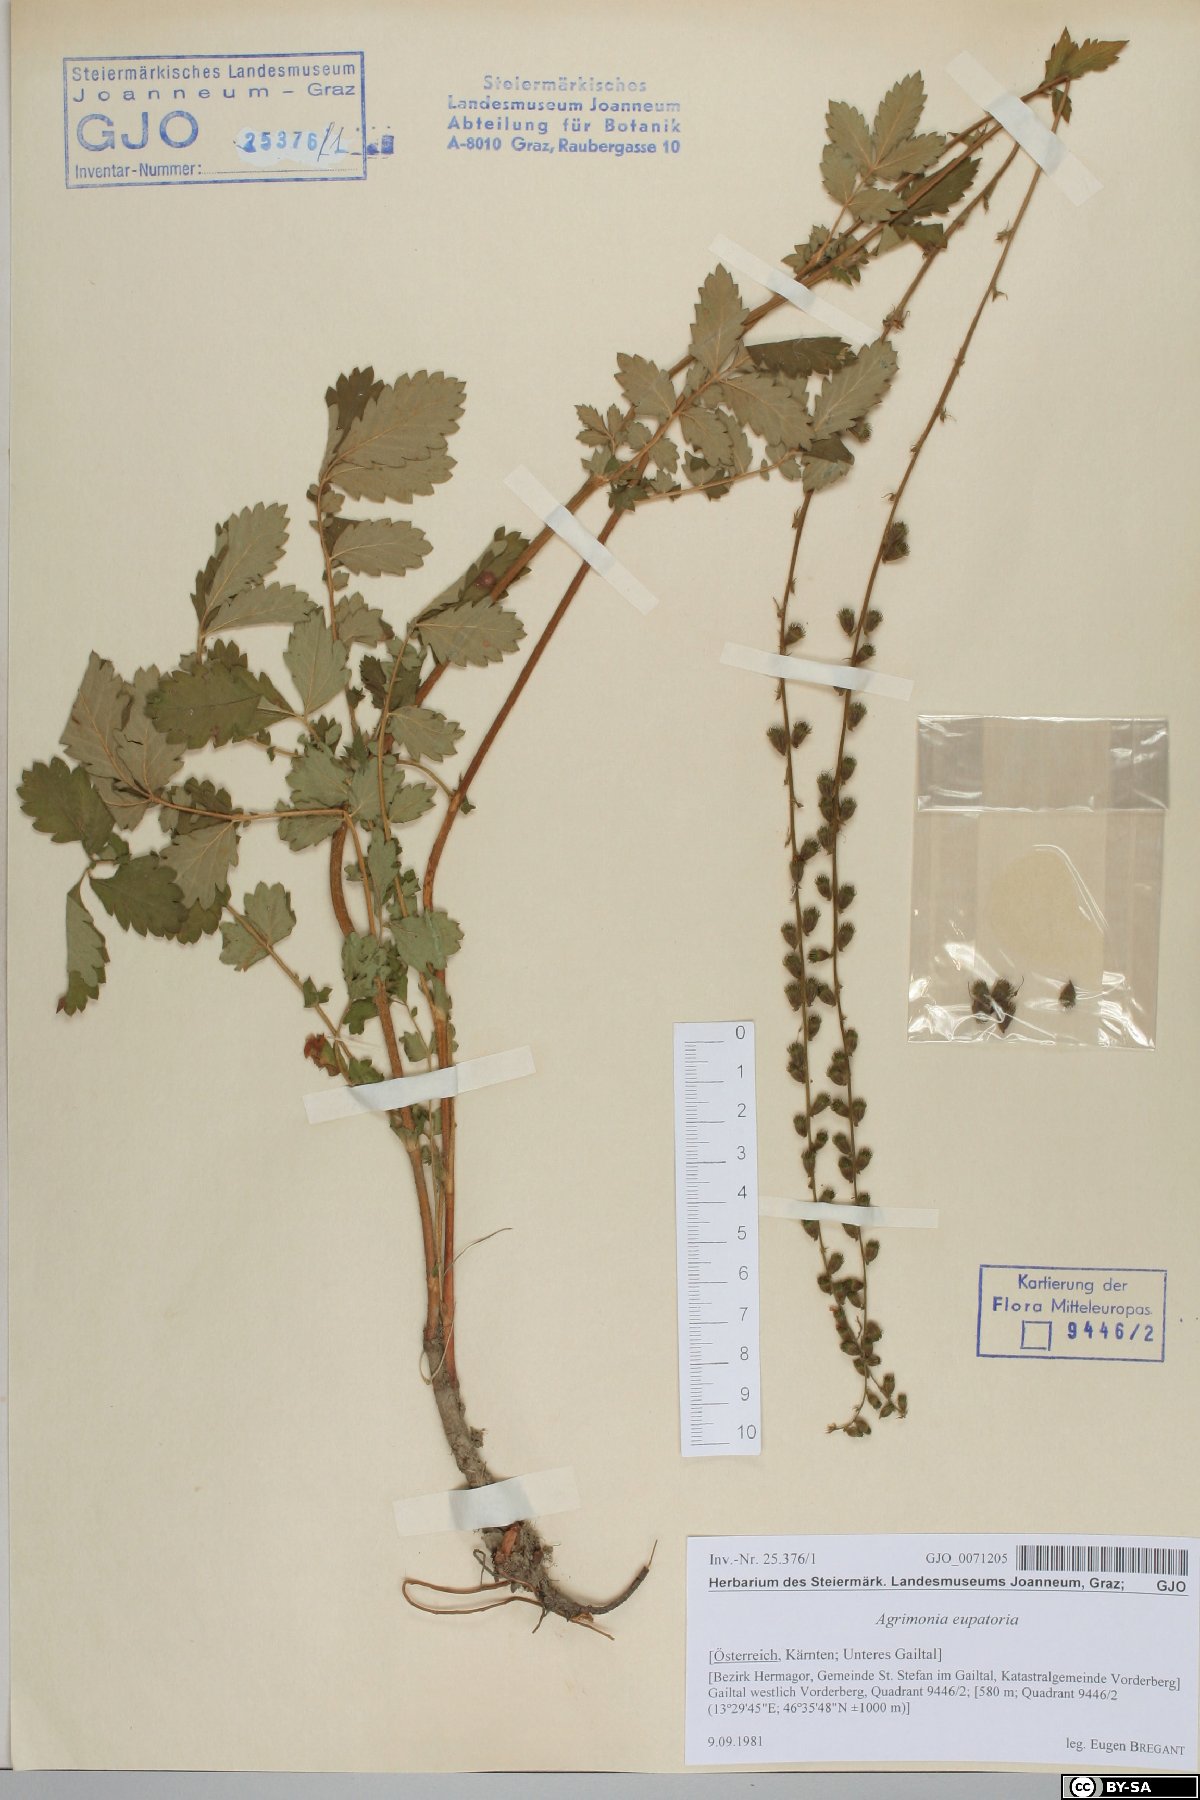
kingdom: Plantae
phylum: Tracheophyta
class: Magnoliopsida
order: Rosales
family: Rosaceae
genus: Agrimonia
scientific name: Agrimonia eupatoria
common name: Agrimony
